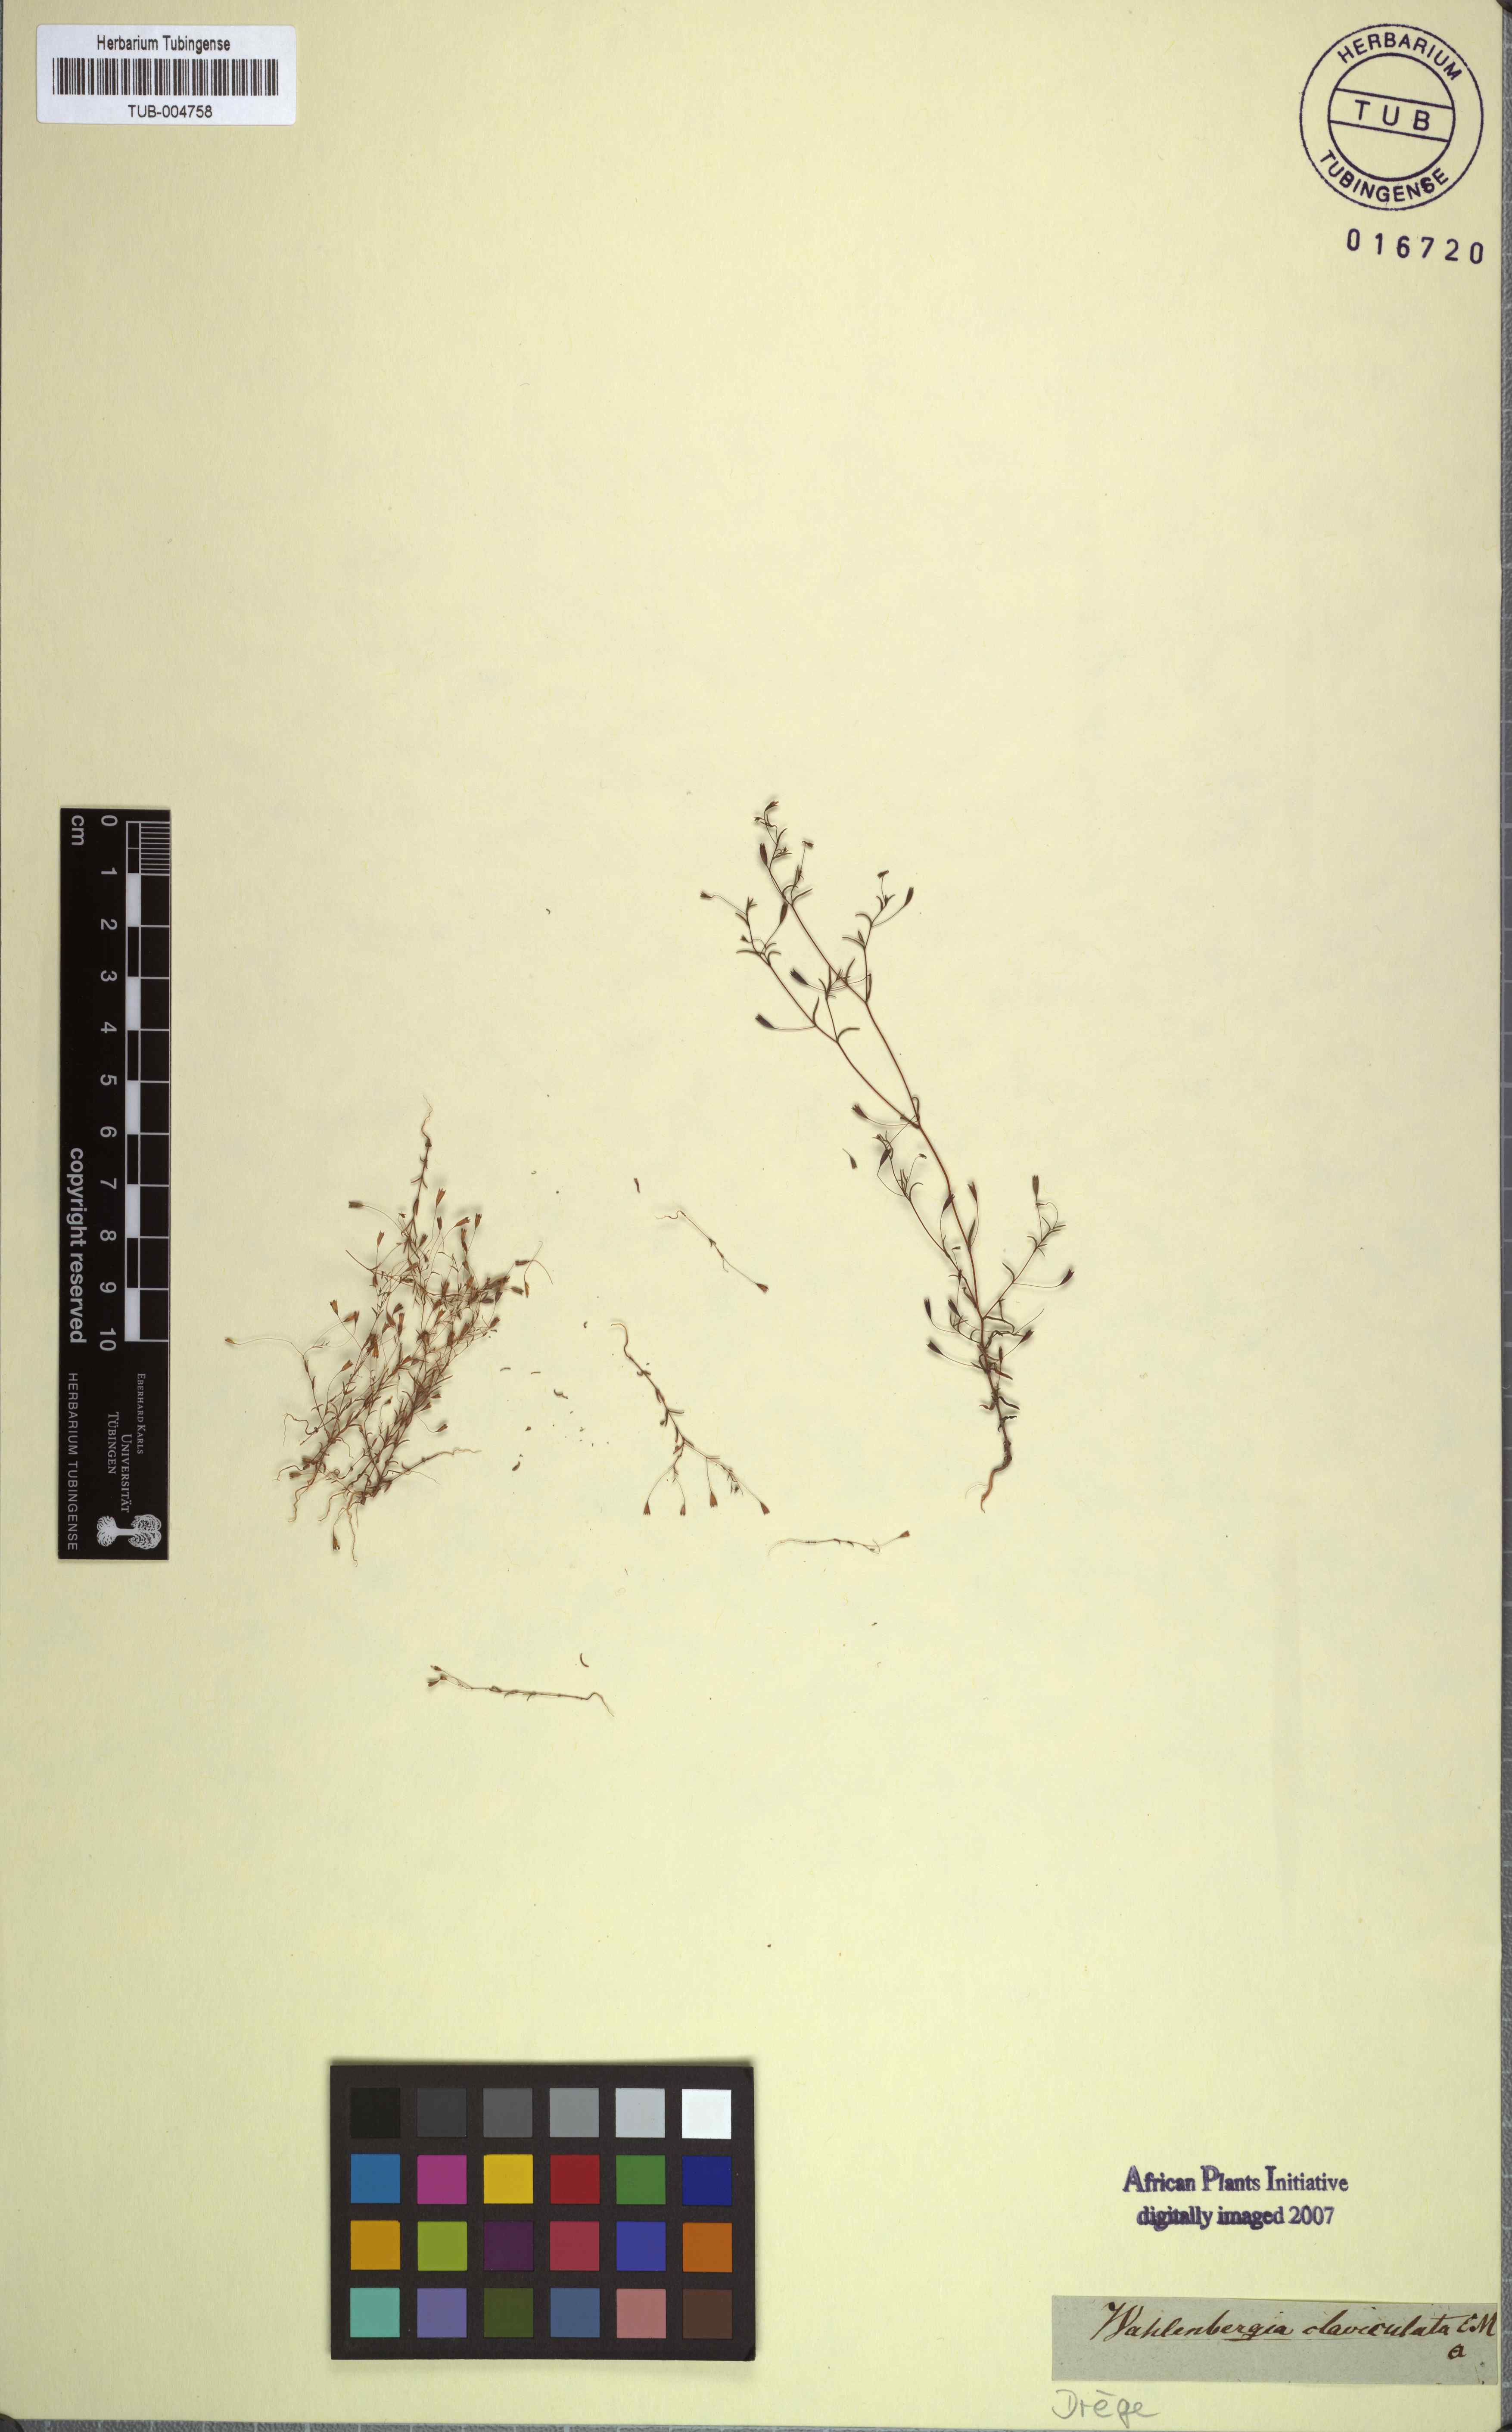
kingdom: Plantae
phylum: Tracheophyta
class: Magnoliopsida
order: Asterales
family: Campanulaceae
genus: Wahlenbergia
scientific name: Wahlenbergia exilis
